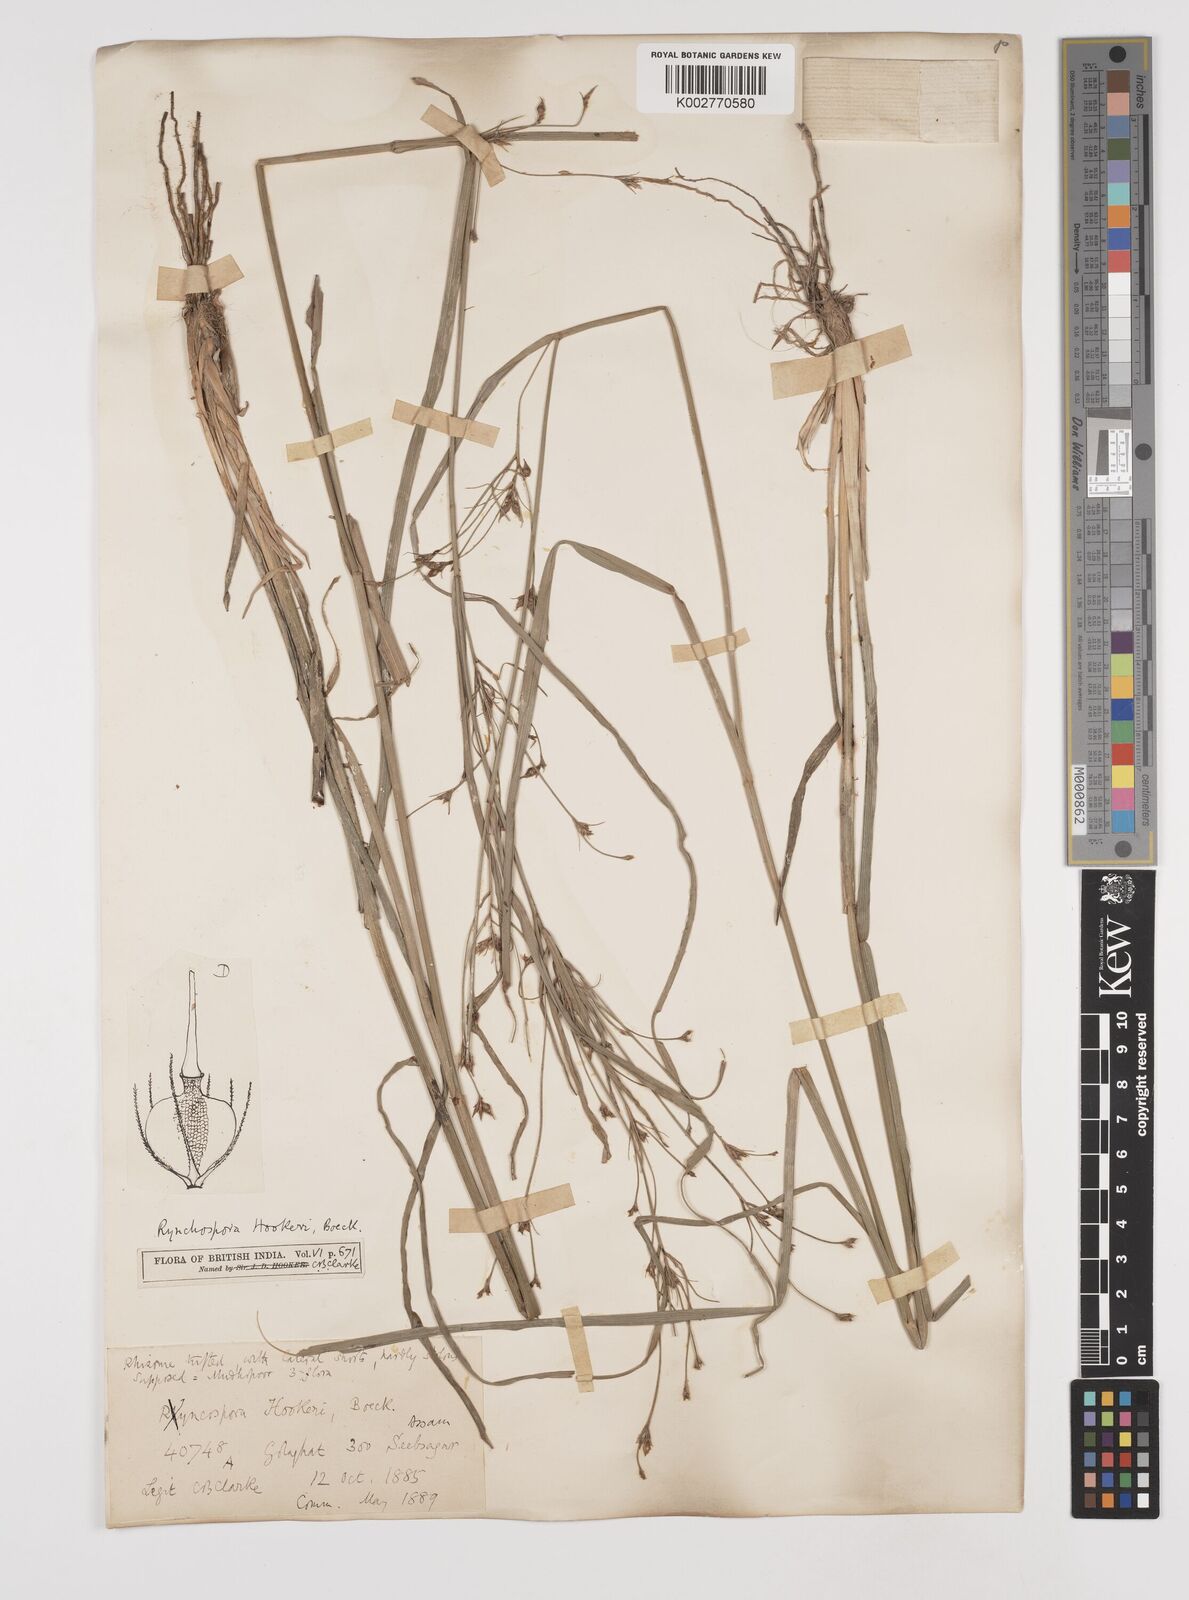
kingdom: Plantae
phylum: Tracheophyta
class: Liliopsida
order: Poales
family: Cyperaceae
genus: Rhynchospora
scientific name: Rhynchospora hookeri
